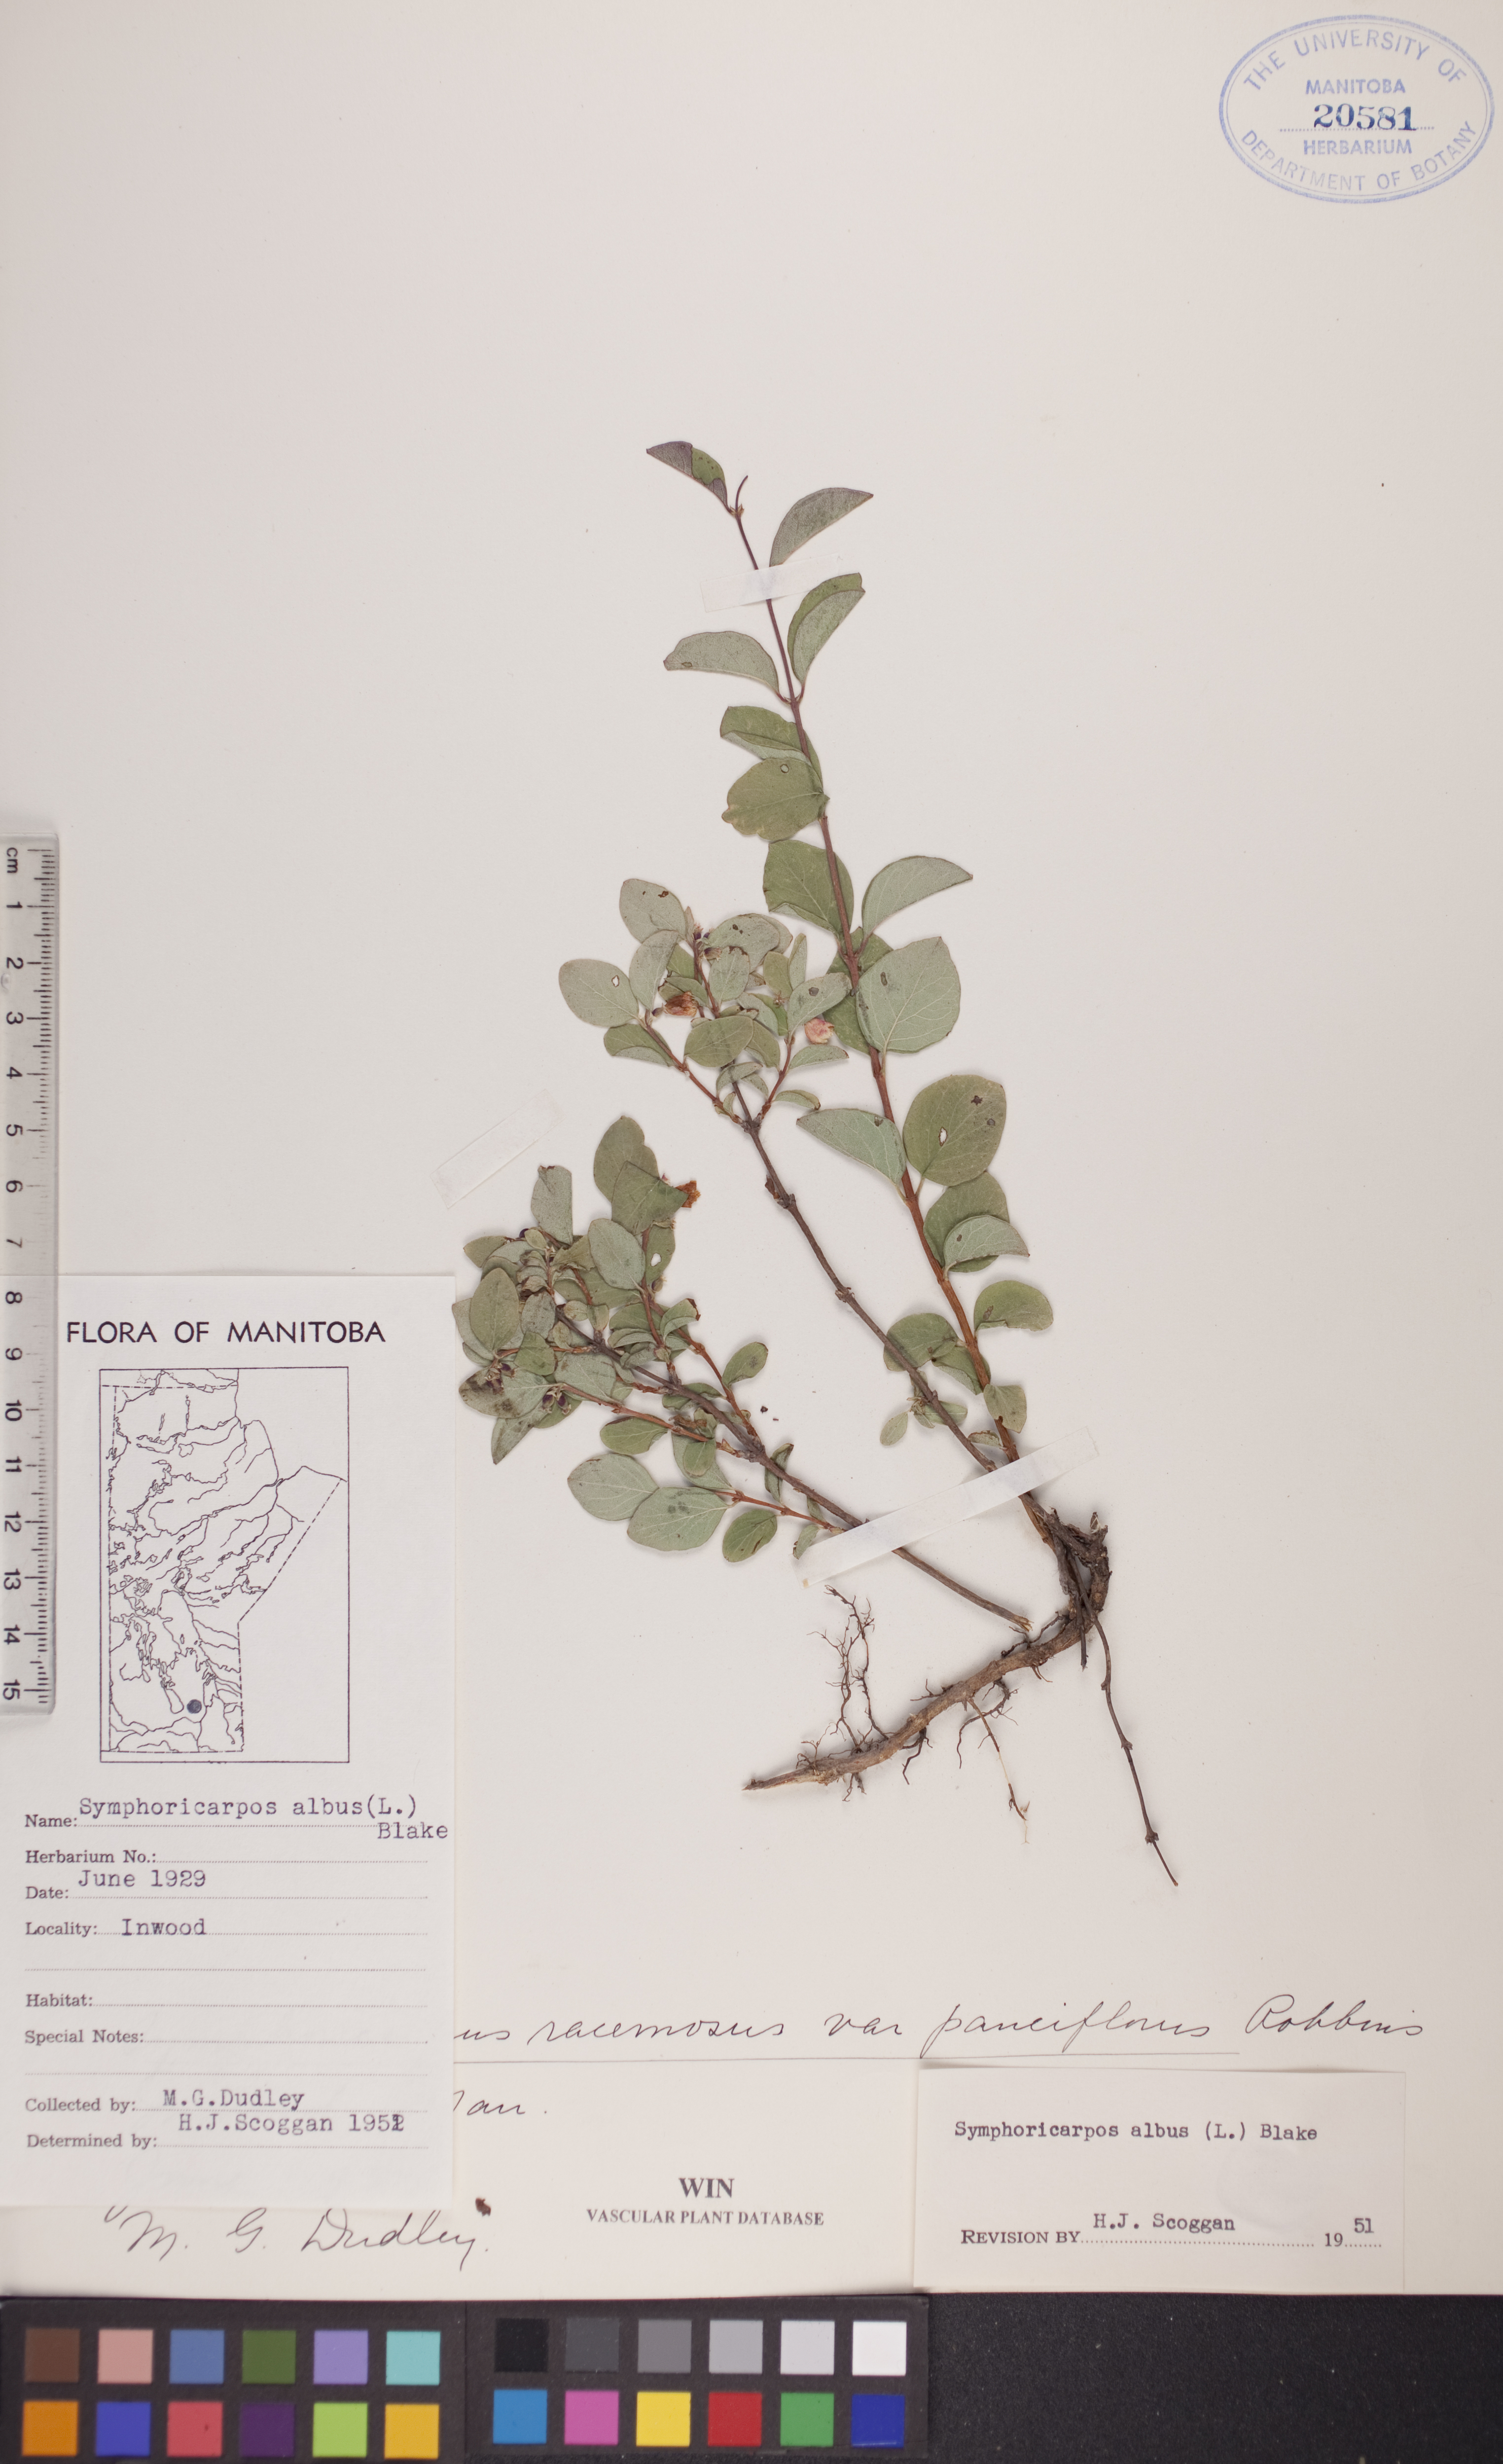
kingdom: Plantae
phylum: Tracheophyta
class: Magnoliopsida
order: Dipsacales
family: Caprifoliaceae
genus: Symphoricarpos
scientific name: Symphoricarpos albus
